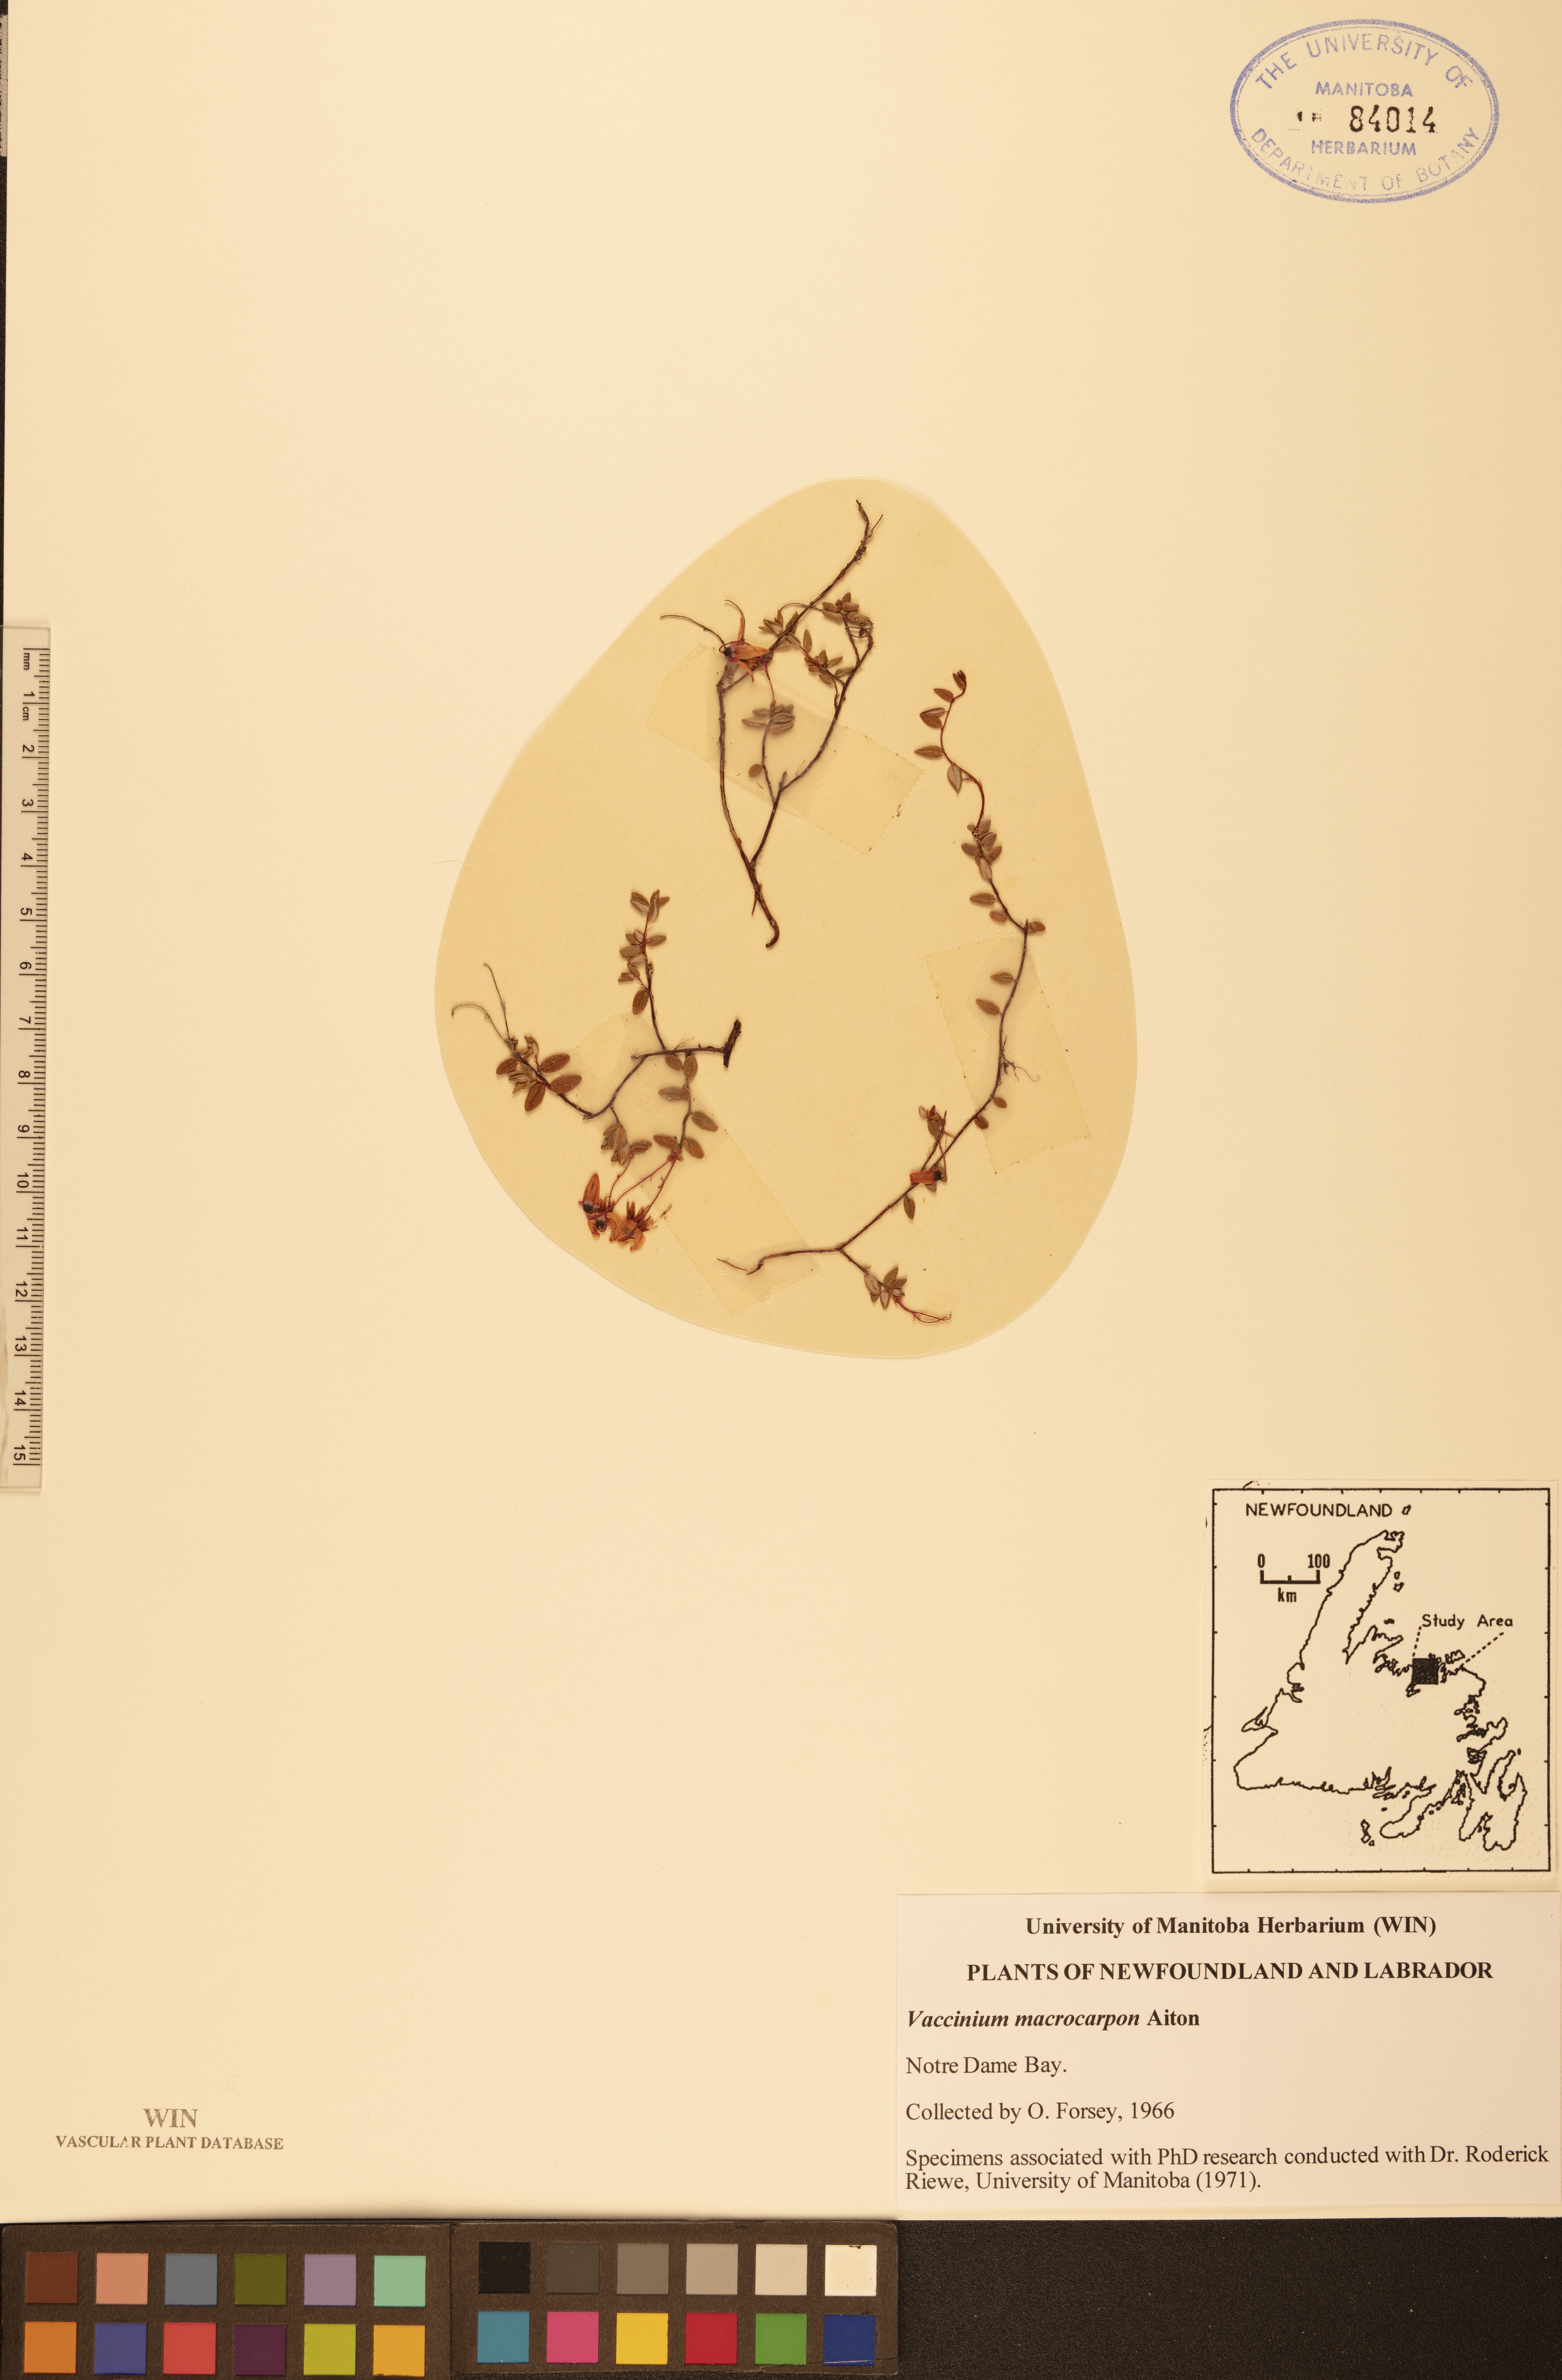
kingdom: Plantae
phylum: Tracheophyta
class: Magnoliopsida
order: Ericales
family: Ericaceae
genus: Vaccinium
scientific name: Vaccinium macrocarpon
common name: American cranberry
